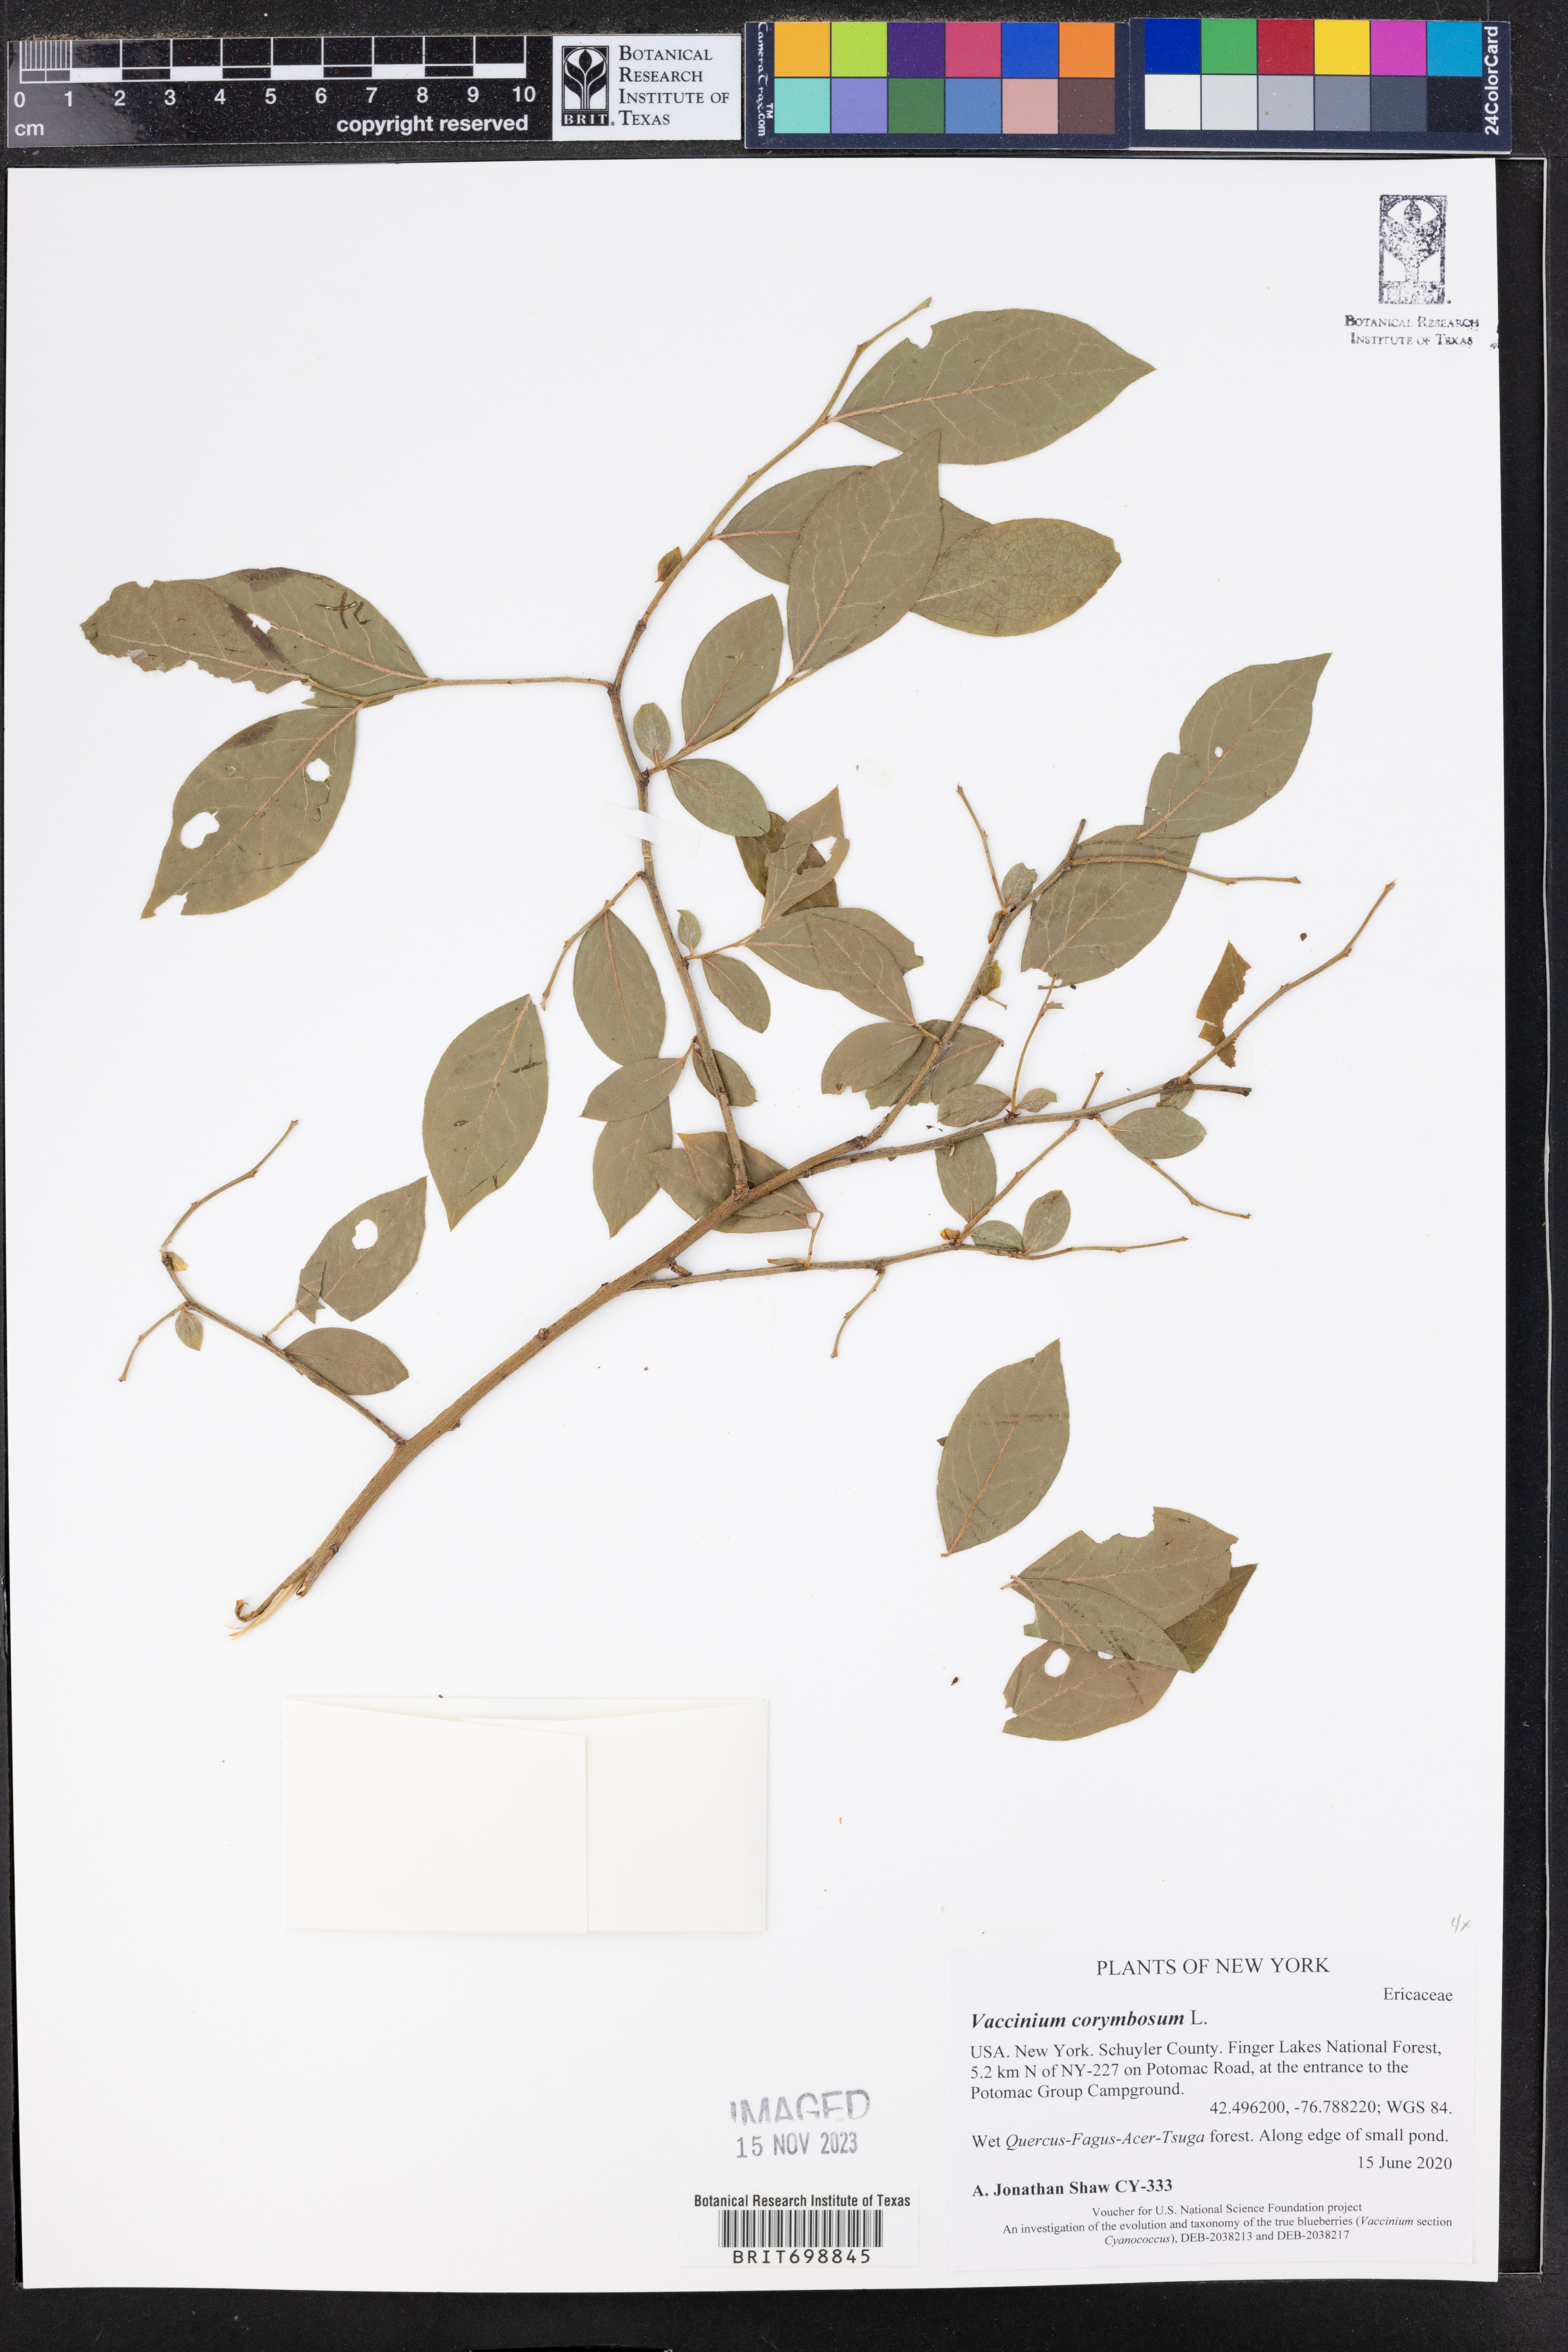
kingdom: Plantae
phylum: Tracheophyta
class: Magnoliopsida
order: Ericales
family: Ericaceae
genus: Vaccinium
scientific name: Vaccinium corymbosum
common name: Blueberry
